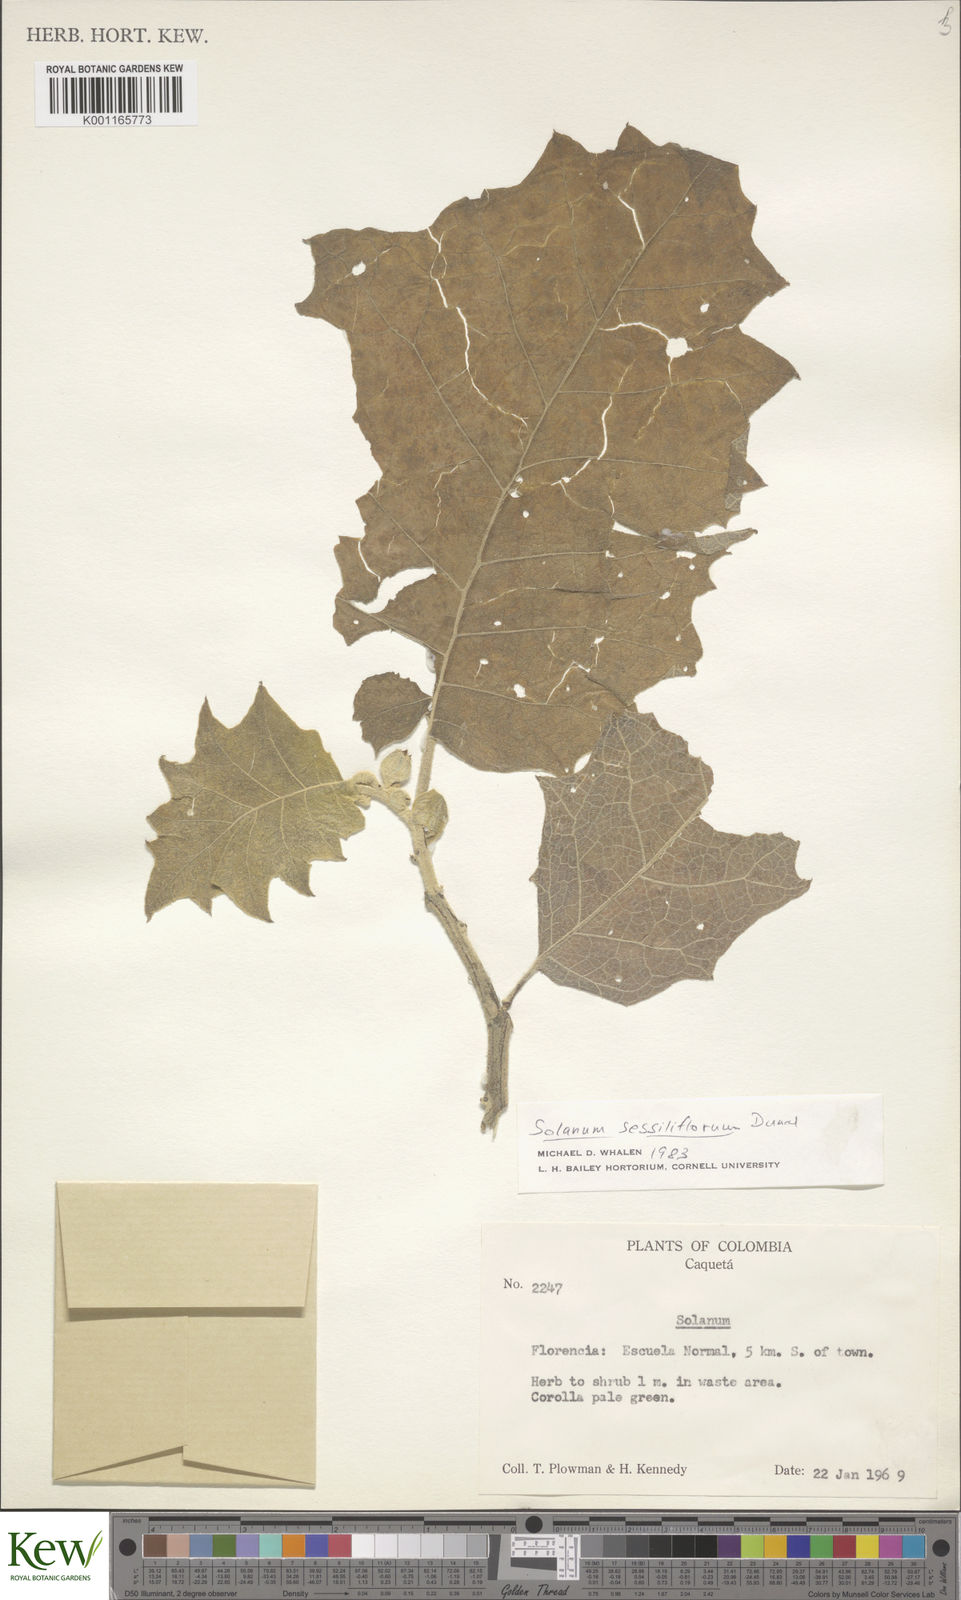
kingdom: Plantae
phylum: Tracheophyta
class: Magnoliopsida
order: Solanales
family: Solanaceae
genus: Solanum
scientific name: Solanum sessiliflorum
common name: Orinoco-apple
